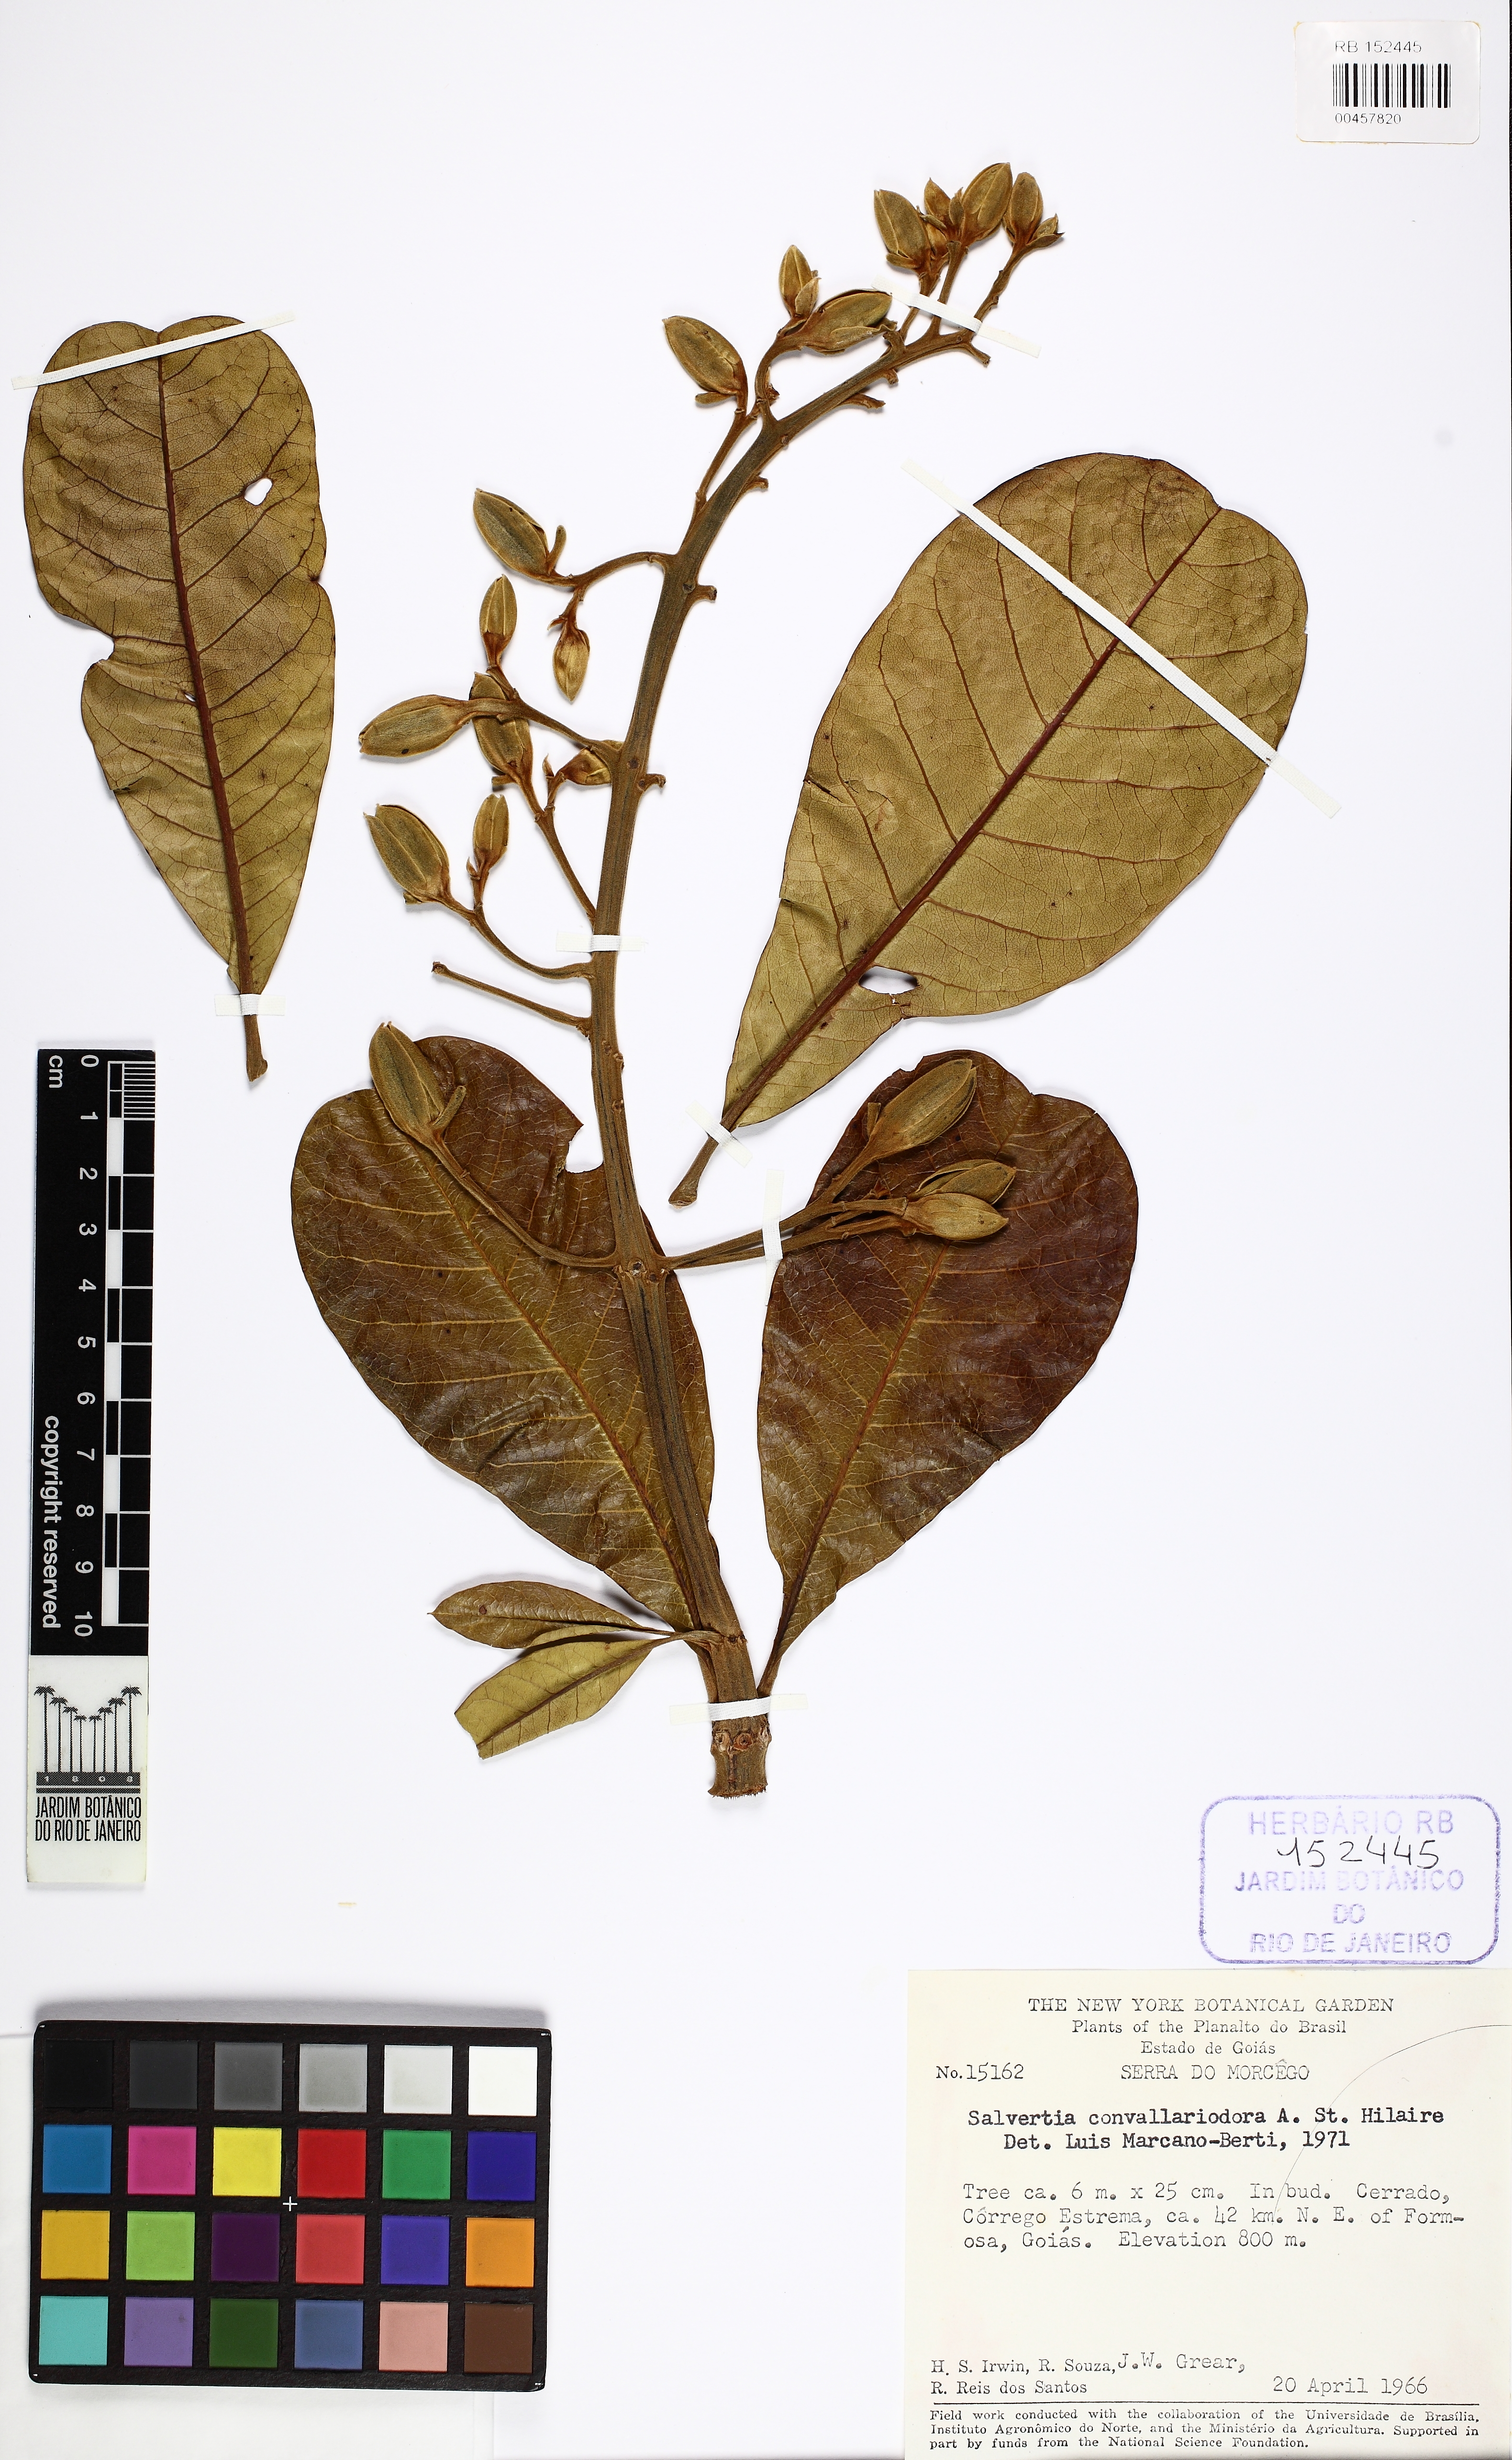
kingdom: Plantae
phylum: Tracheophyta
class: Magnoliopsida
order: Myrtales
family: Vochysiaceae
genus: Salvertia
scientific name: Salvertia convallariodora
